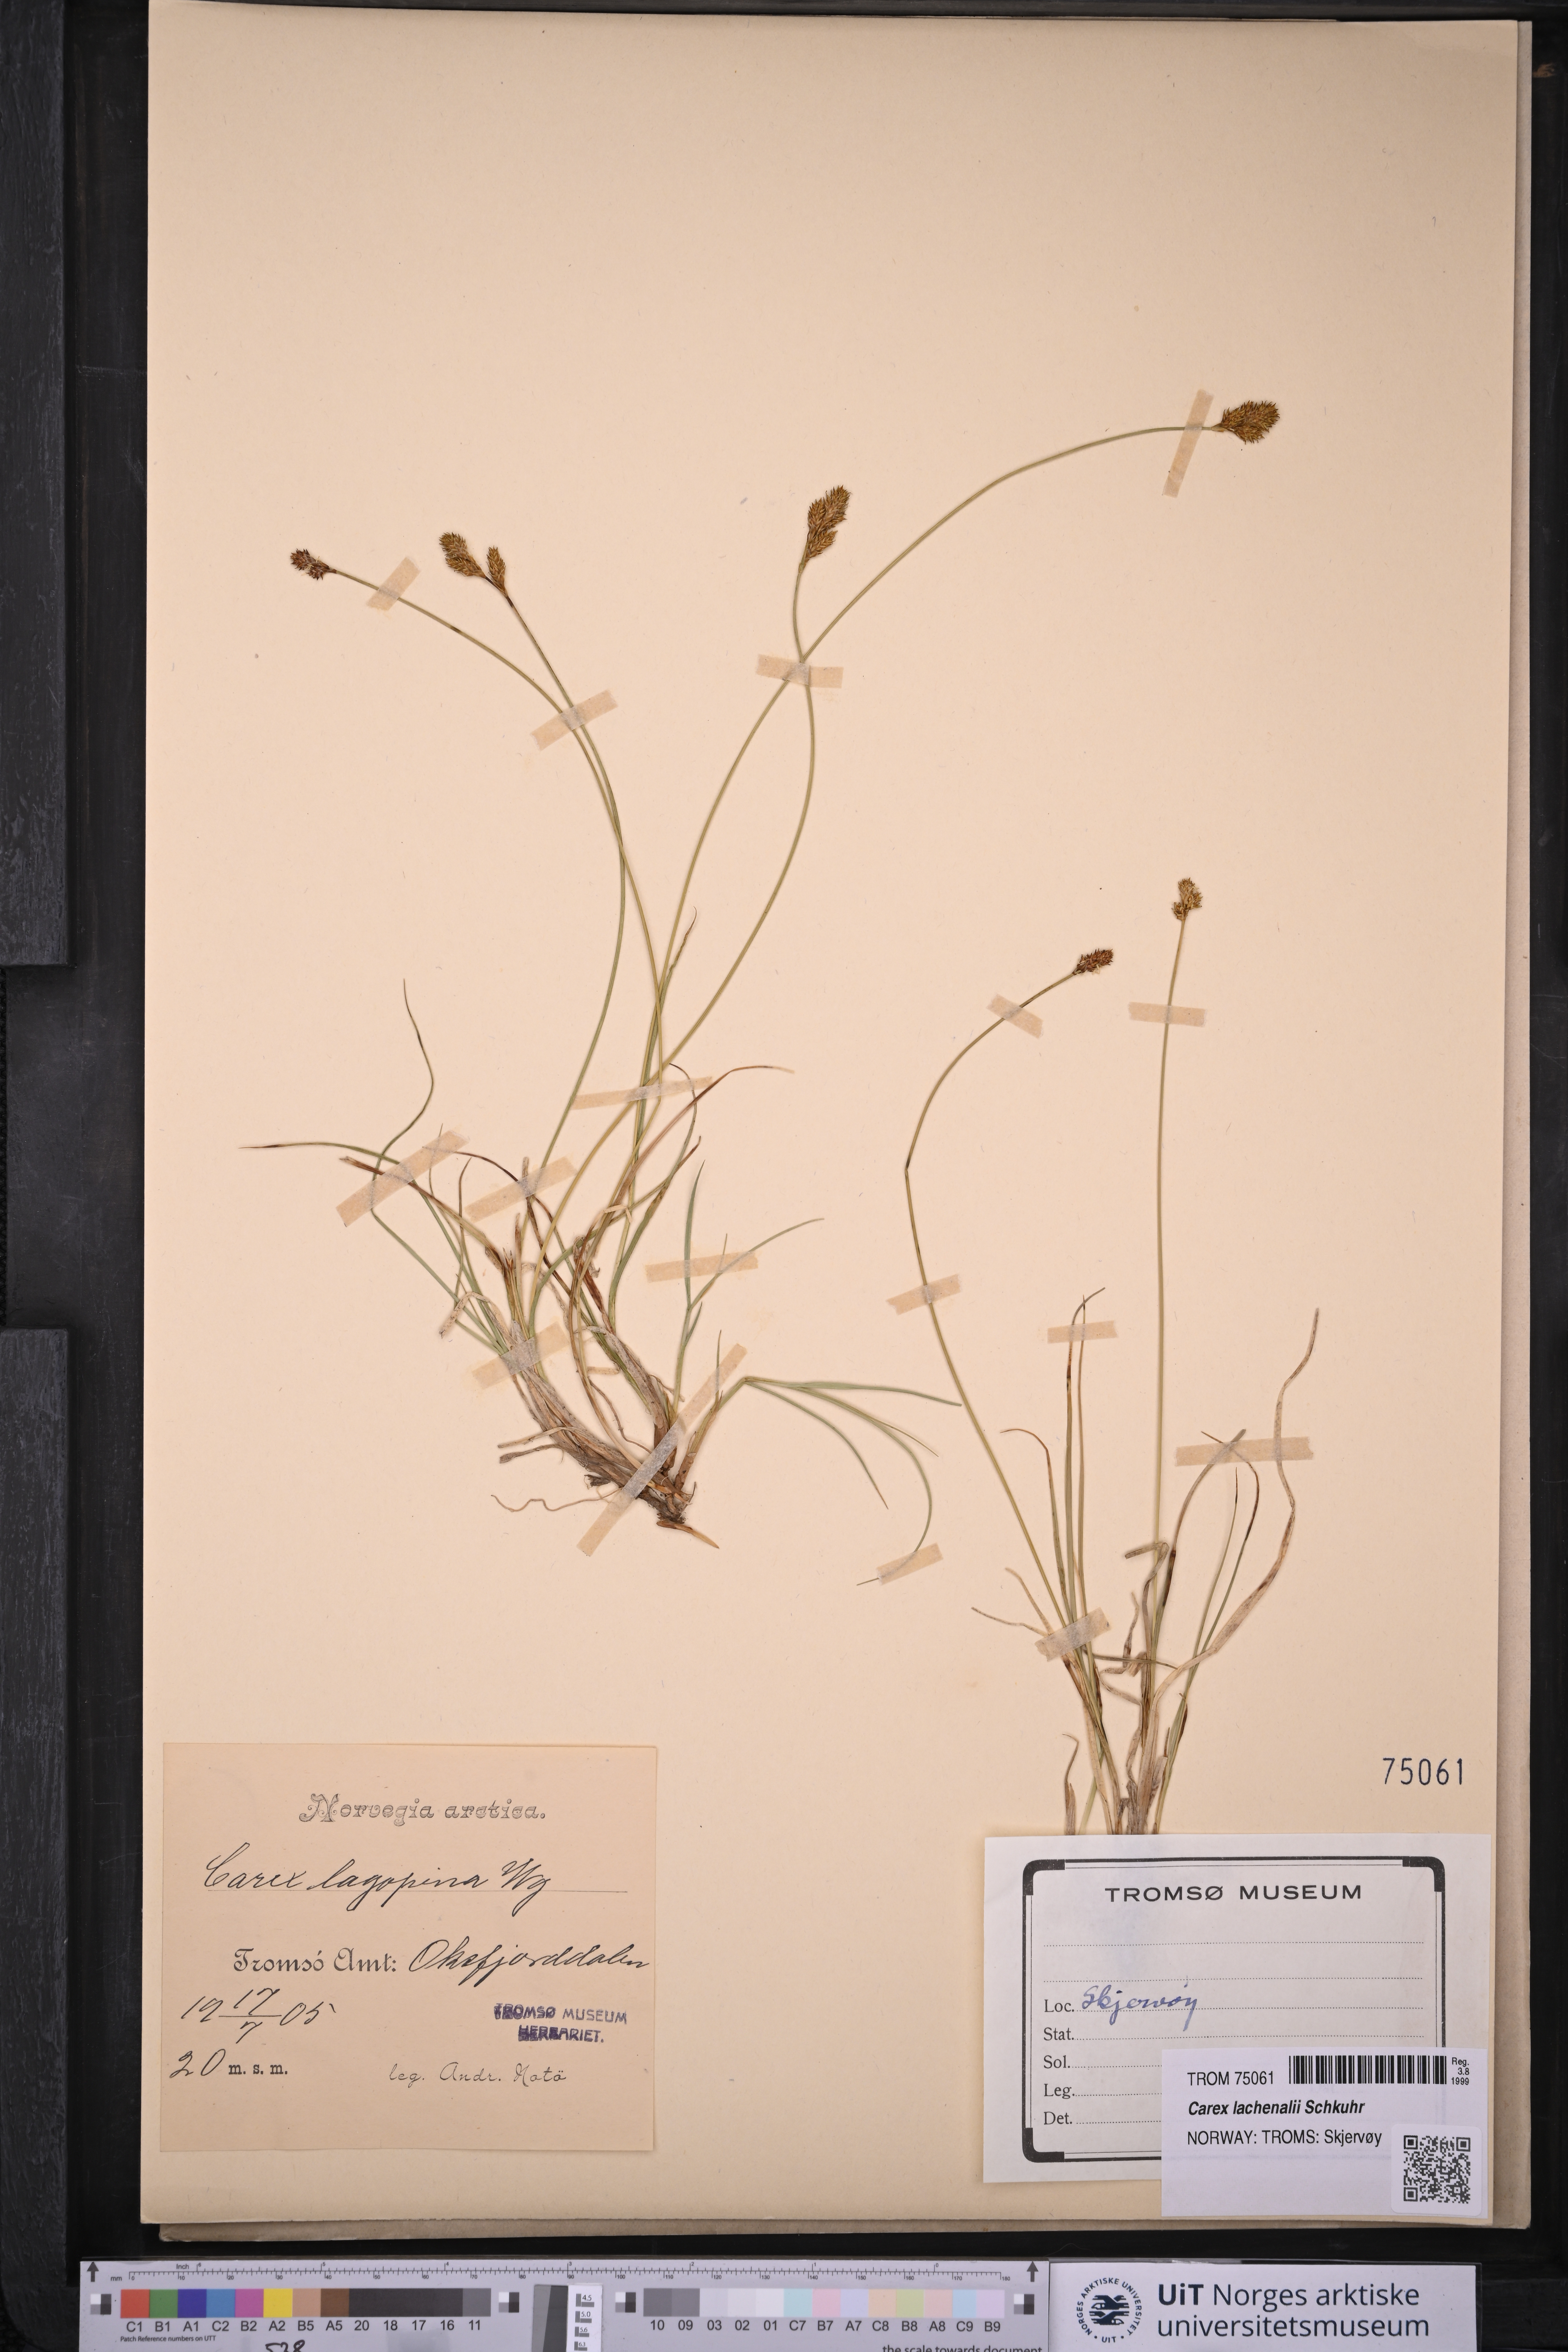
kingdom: Plantae
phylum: Tracheophyta
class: Liliopsida
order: Poales
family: Cyperaceae
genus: Carex
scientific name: Carex lachenalii
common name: Hare's-foot sedge
